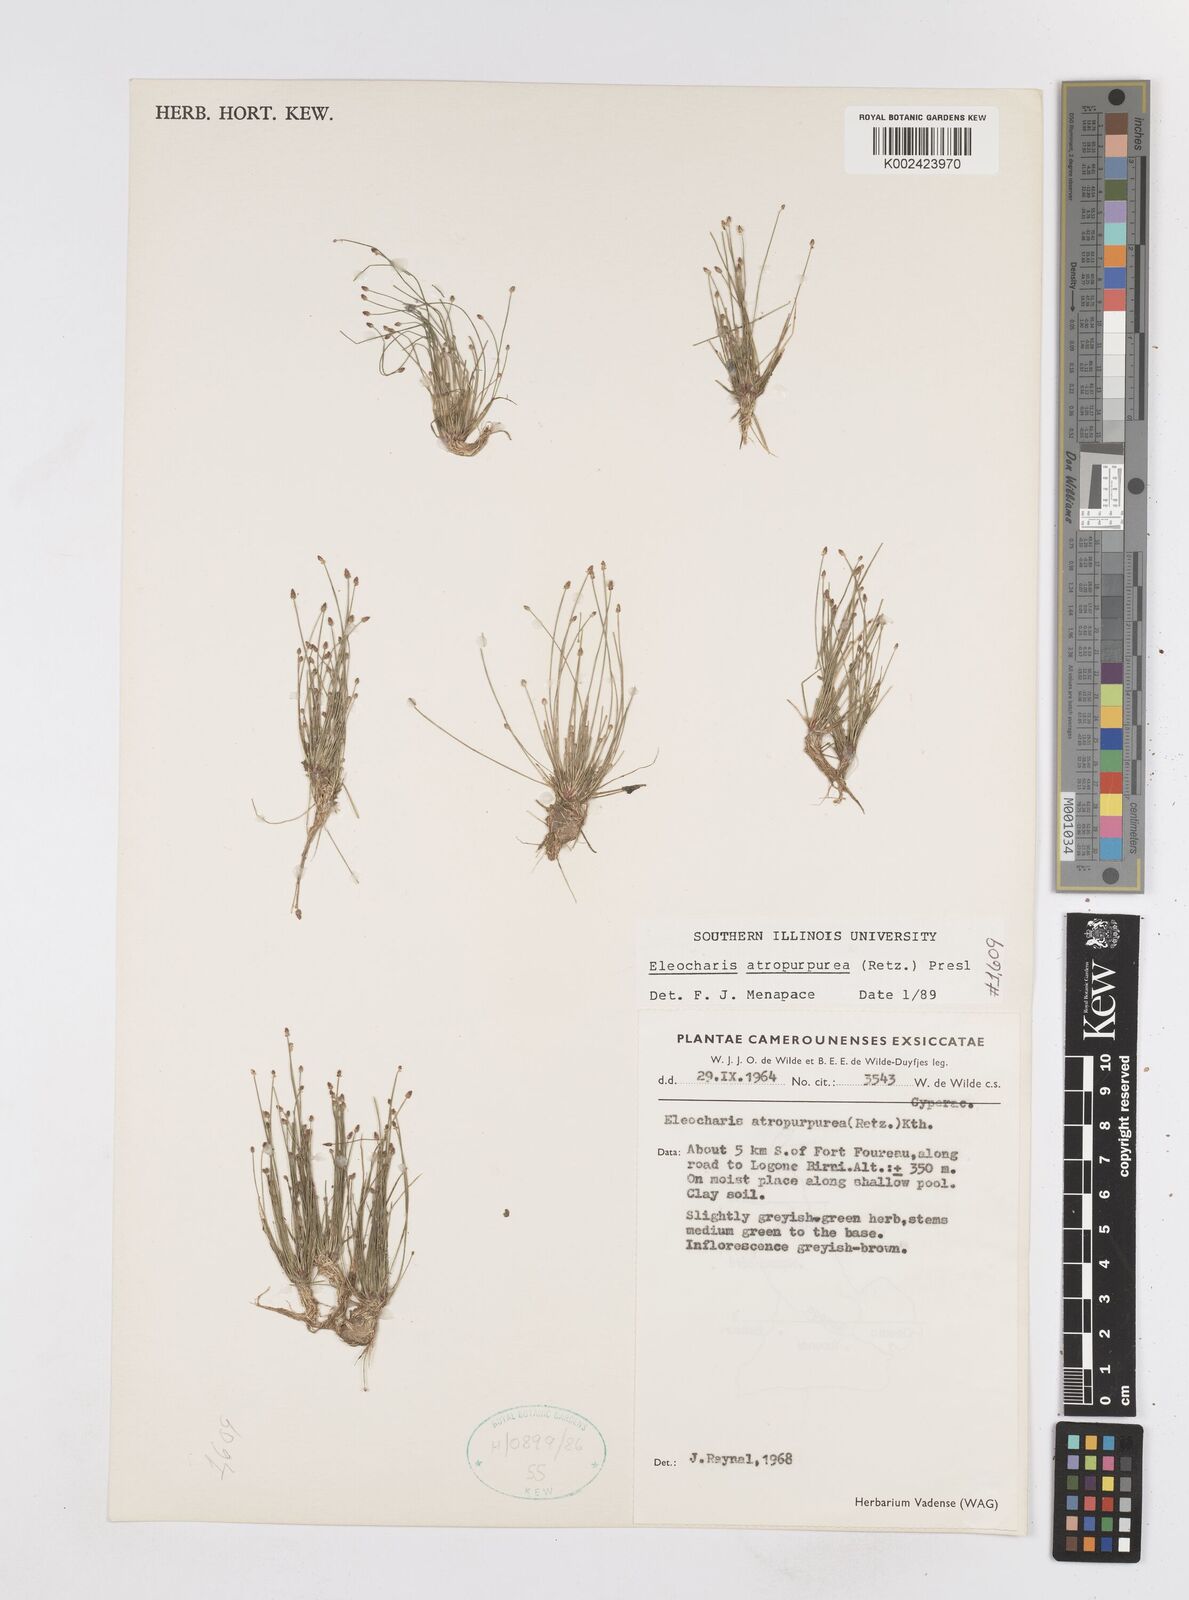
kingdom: Plantae
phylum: Tracheophyta
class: Liliopsida
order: Poales
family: Cyperaceae
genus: Eleocharis
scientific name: Eleocharis atropurpurea
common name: Purple spikerush
